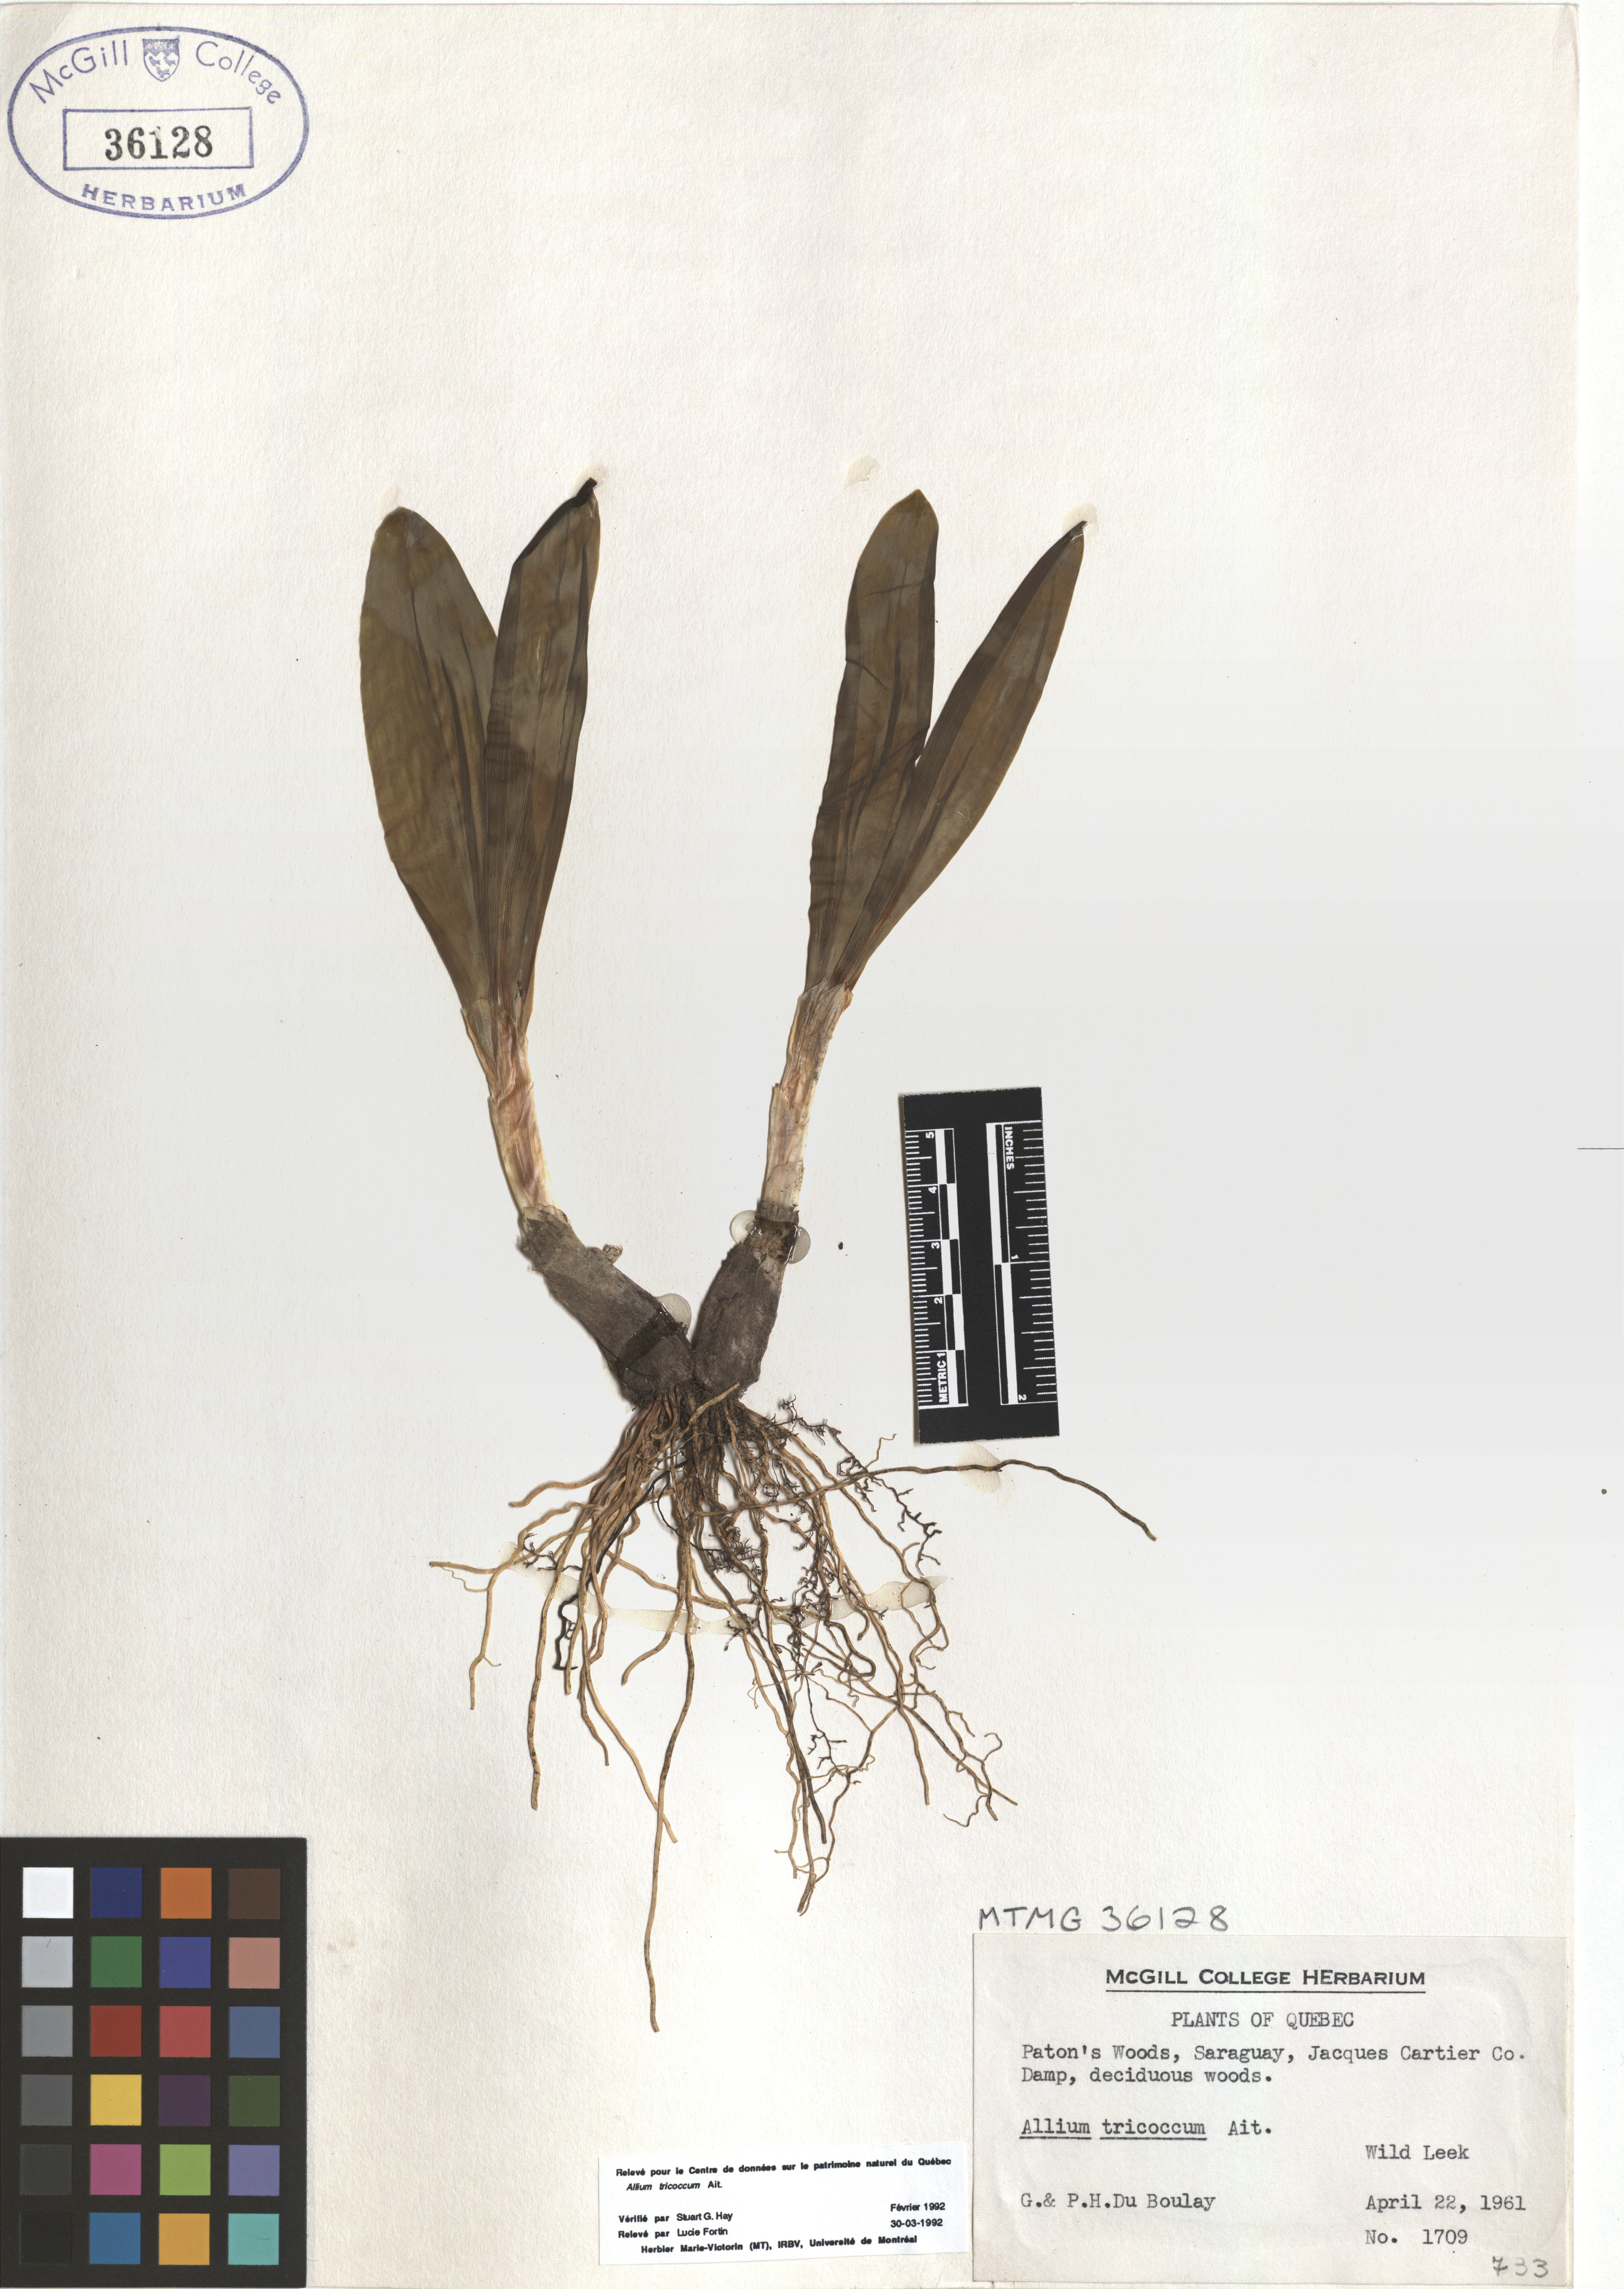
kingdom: Plantae
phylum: Tracheophyta
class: Liliopsida
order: Asparagales
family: Amaryllidaceae
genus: Allium
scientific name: Allium tricoccum
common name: Ramp
